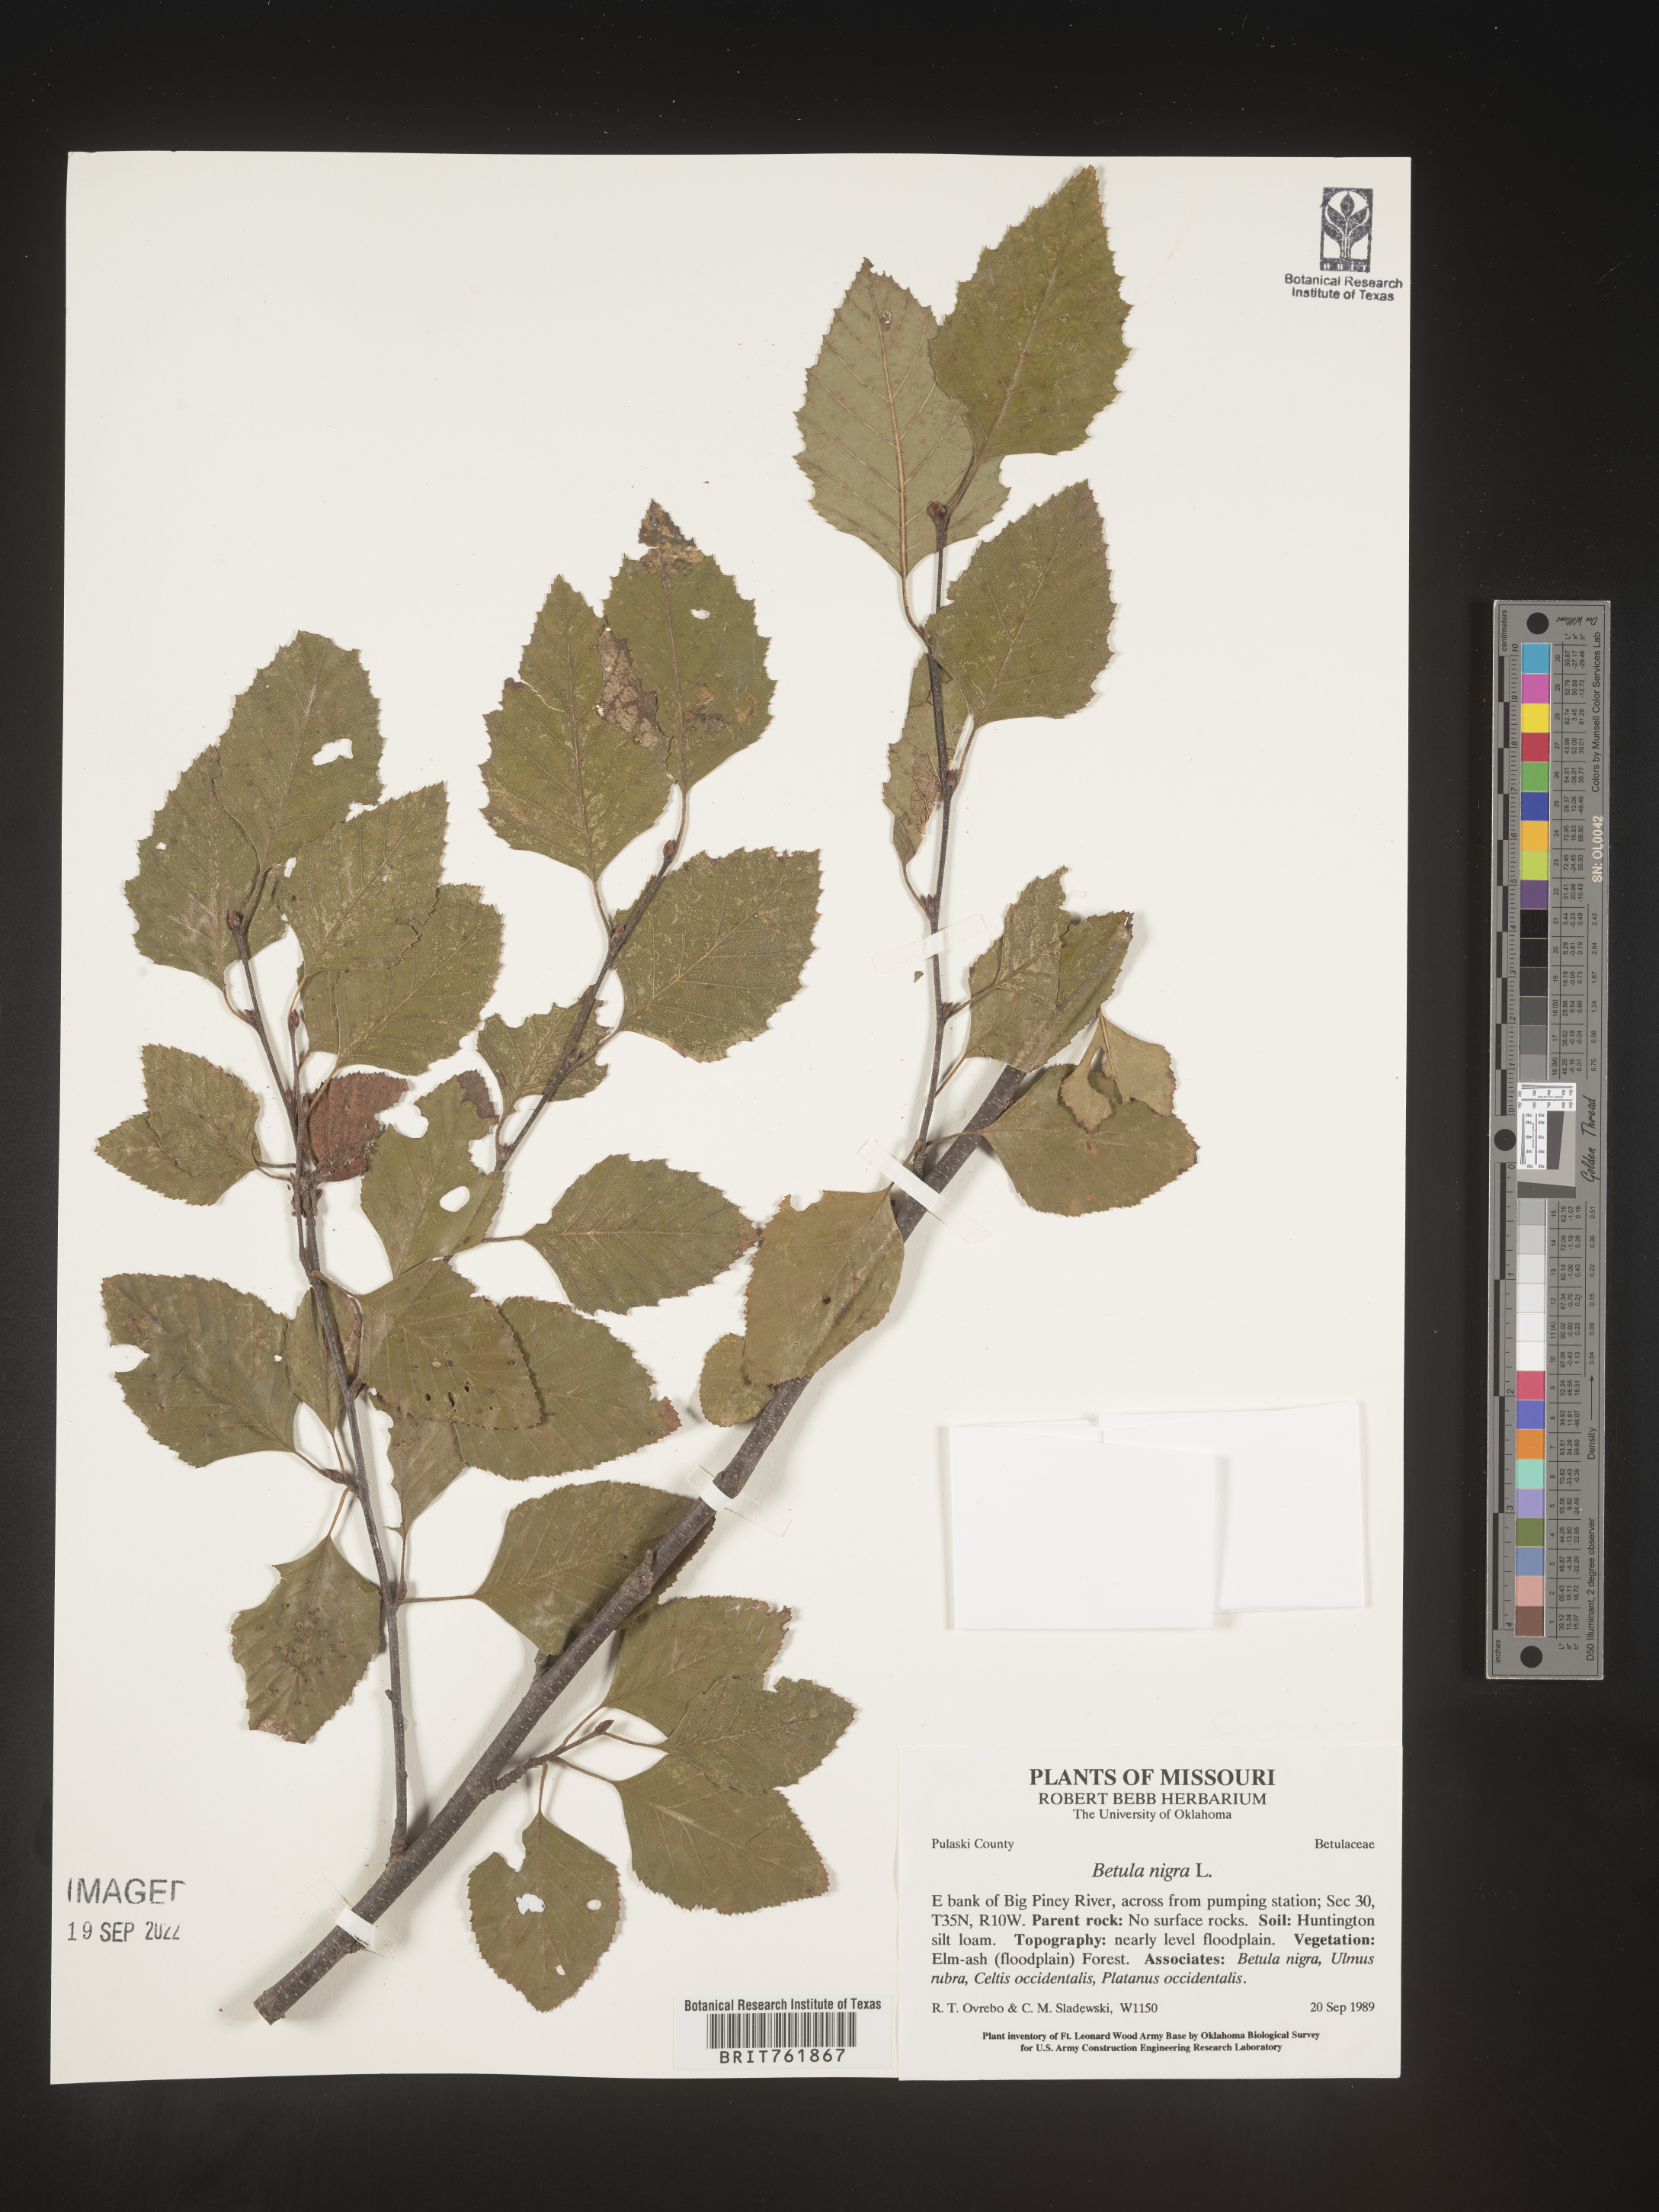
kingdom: Plantae
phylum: Tracheophyta
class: Magnoliopsida
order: Fagales
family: Betulaceae
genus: Betula
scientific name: Betula nigra
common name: Black birch
